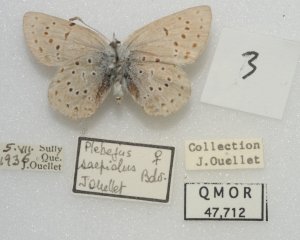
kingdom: Animalia
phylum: Arthropoda
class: Insecta
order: Lepidoptera
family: Lycaenidae
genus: Plebejus
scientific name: Plebejus saepiolus
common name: Greenish Blue
